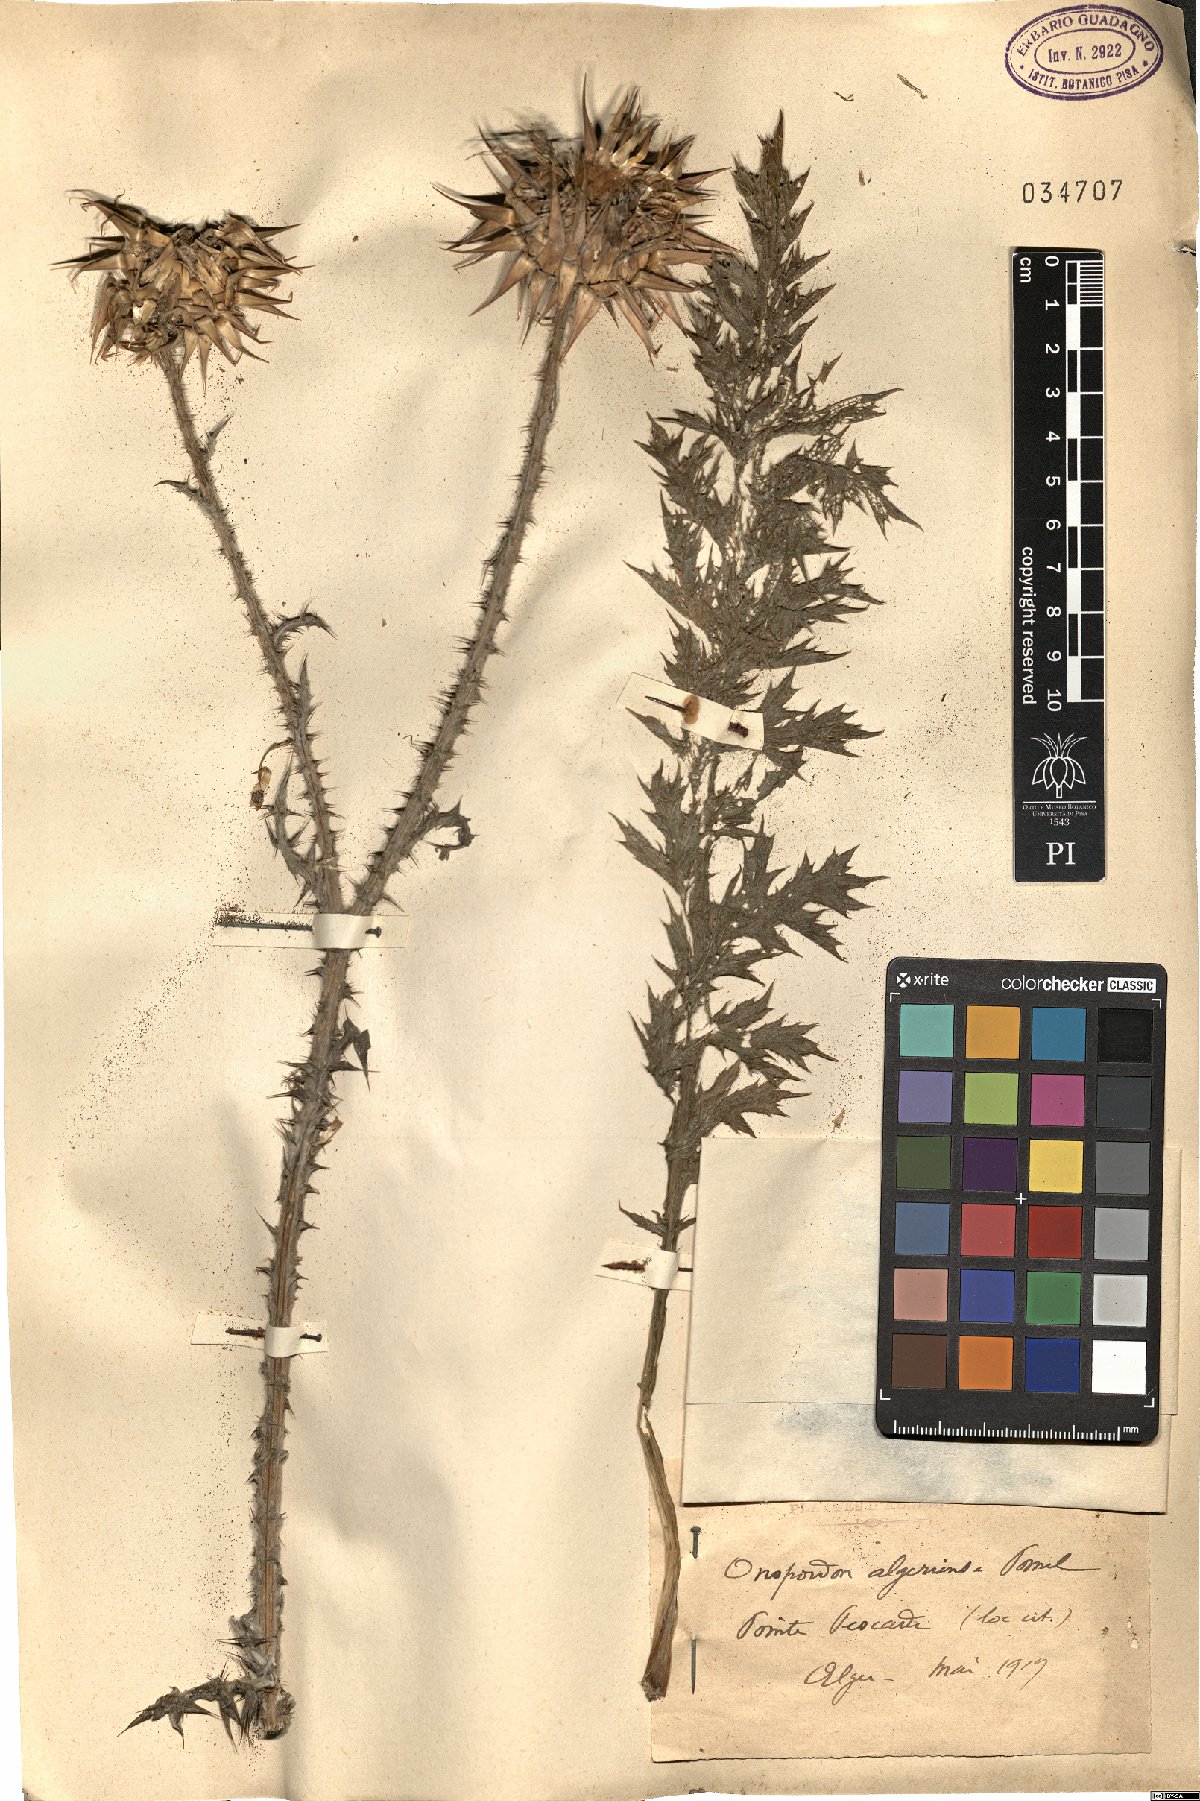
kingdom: Plantae
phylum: Tracheophyta
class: Magnoliopsida
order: Asterales
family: Asteraceae
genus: Onopordum
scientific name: Onopordum algeriense
